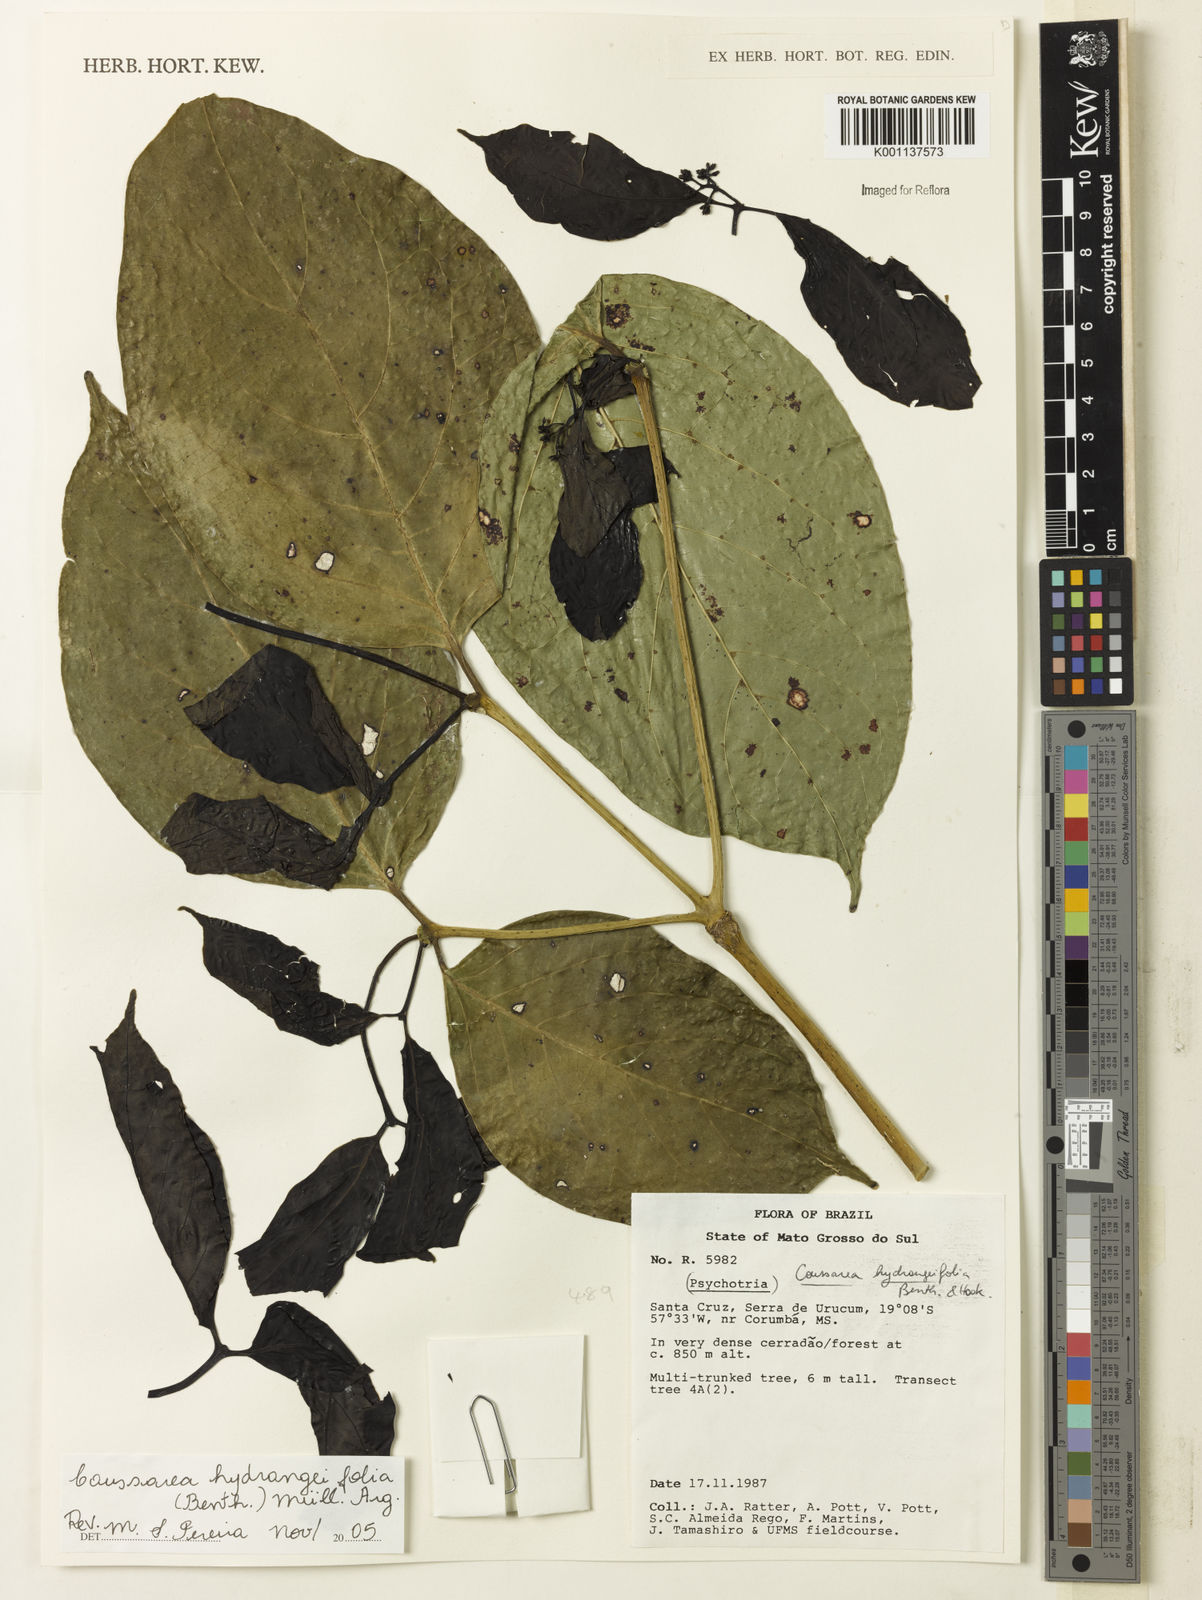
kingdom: Plantae
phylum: Tracheophyta
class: Magnoliopsida
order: Gentianales
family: Rubiaceae
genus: Coussarea
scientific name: Coussarea
